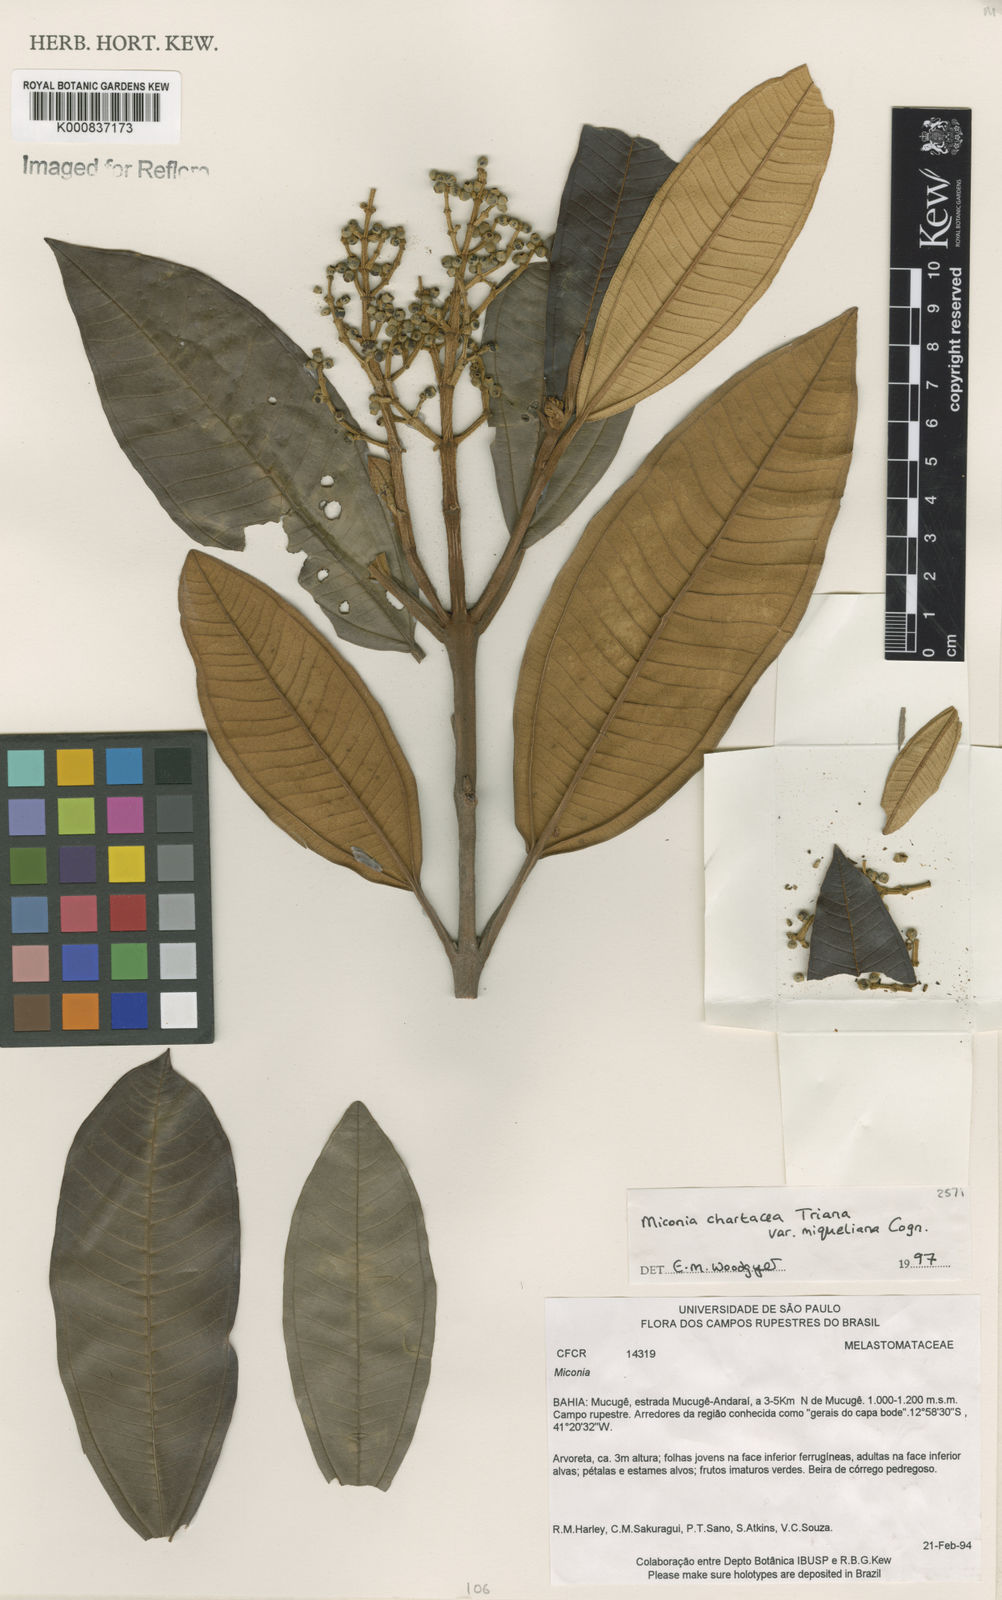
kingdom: Plantae
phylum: Tracheophyta
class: Magnoliopsida
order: Myrtales
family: Melastomataceae
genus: Miconia
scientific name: Miconia chartacea
